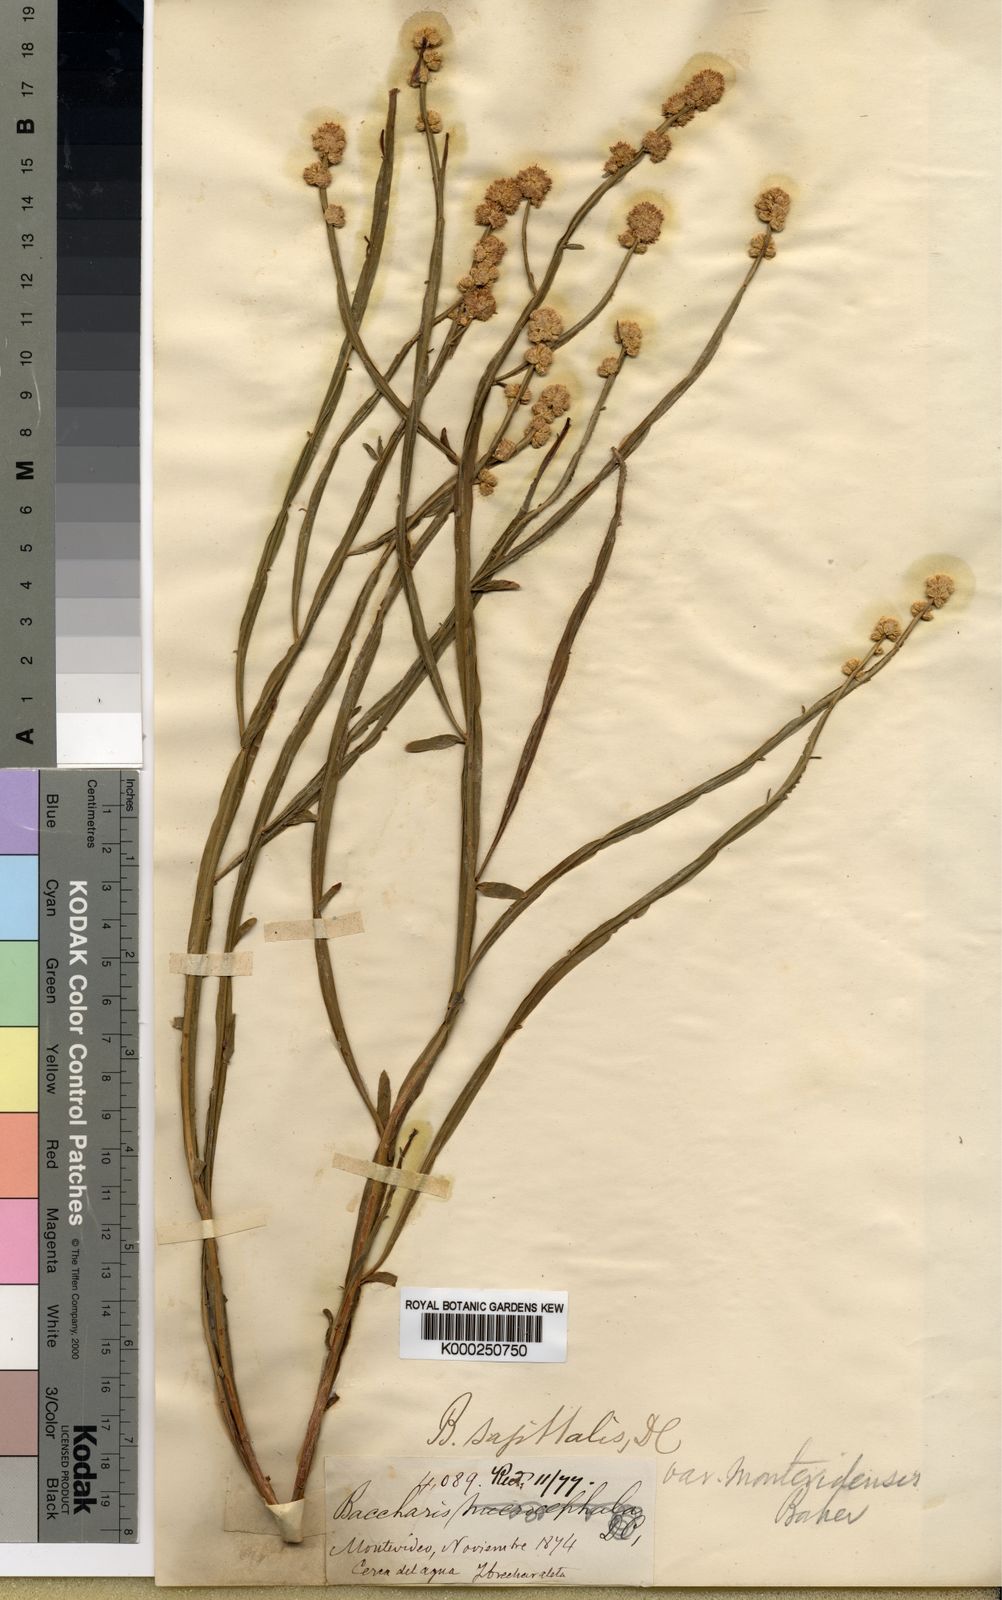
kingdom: Plantae
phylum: Tracheophyta
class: Magnoliopsida
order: Asterales
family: Asteraceae
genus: Baccharis
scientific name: Baccharis subtropicalis
